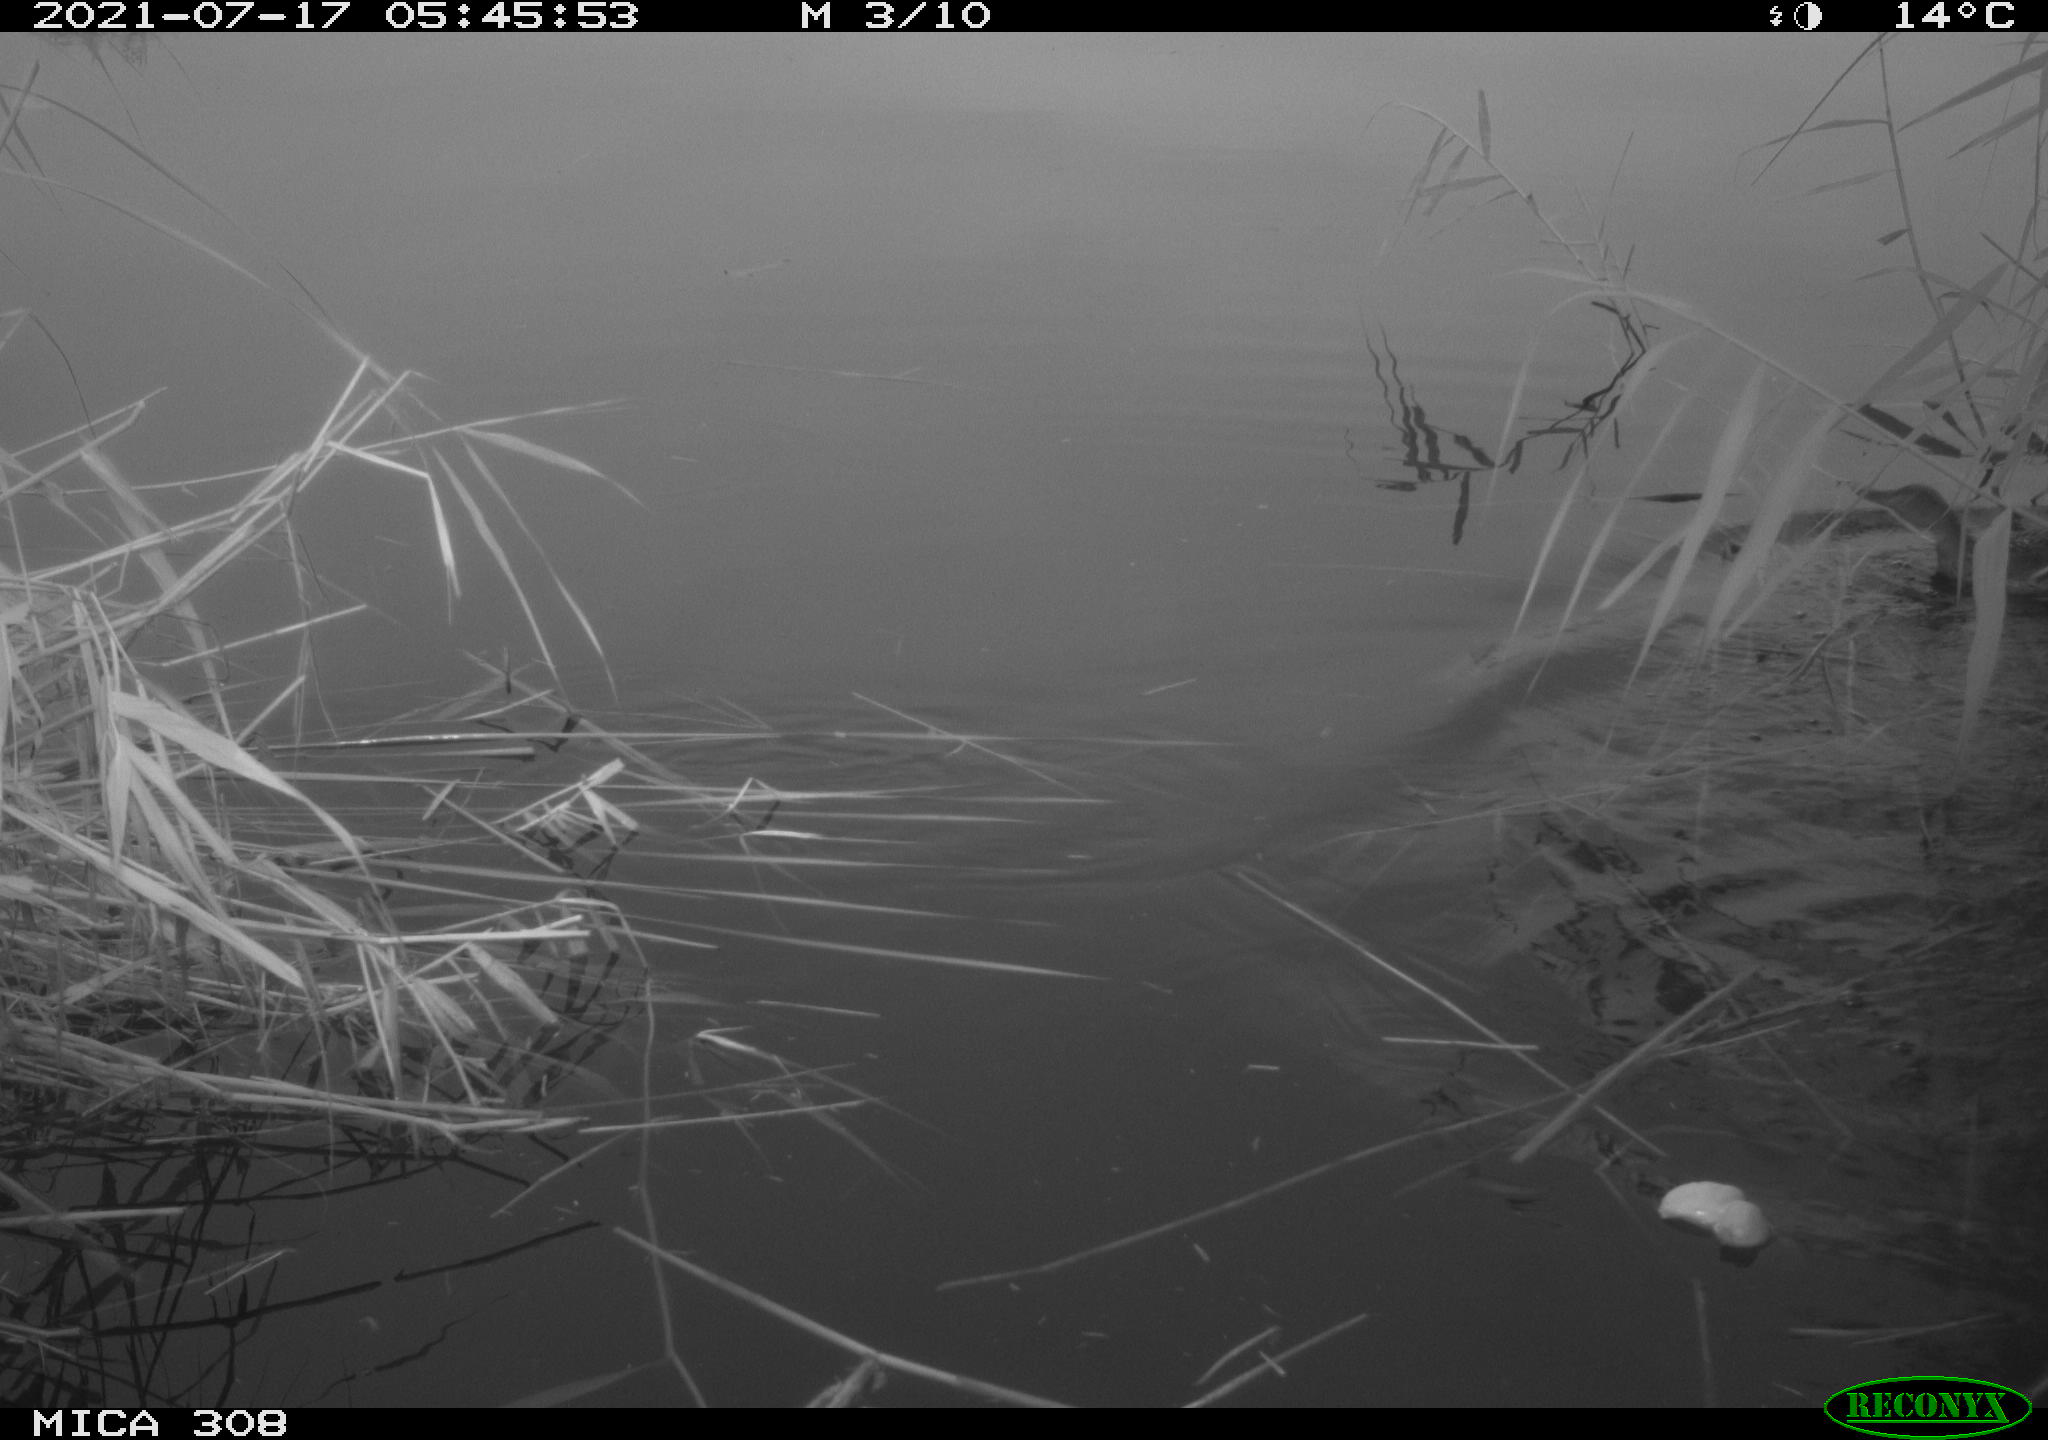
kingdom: Animalia
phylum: Chordata
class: Aves
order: Anseriformes
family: Anatidae
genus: Anas
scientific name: Anas platyrhynchos
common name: Mallard
